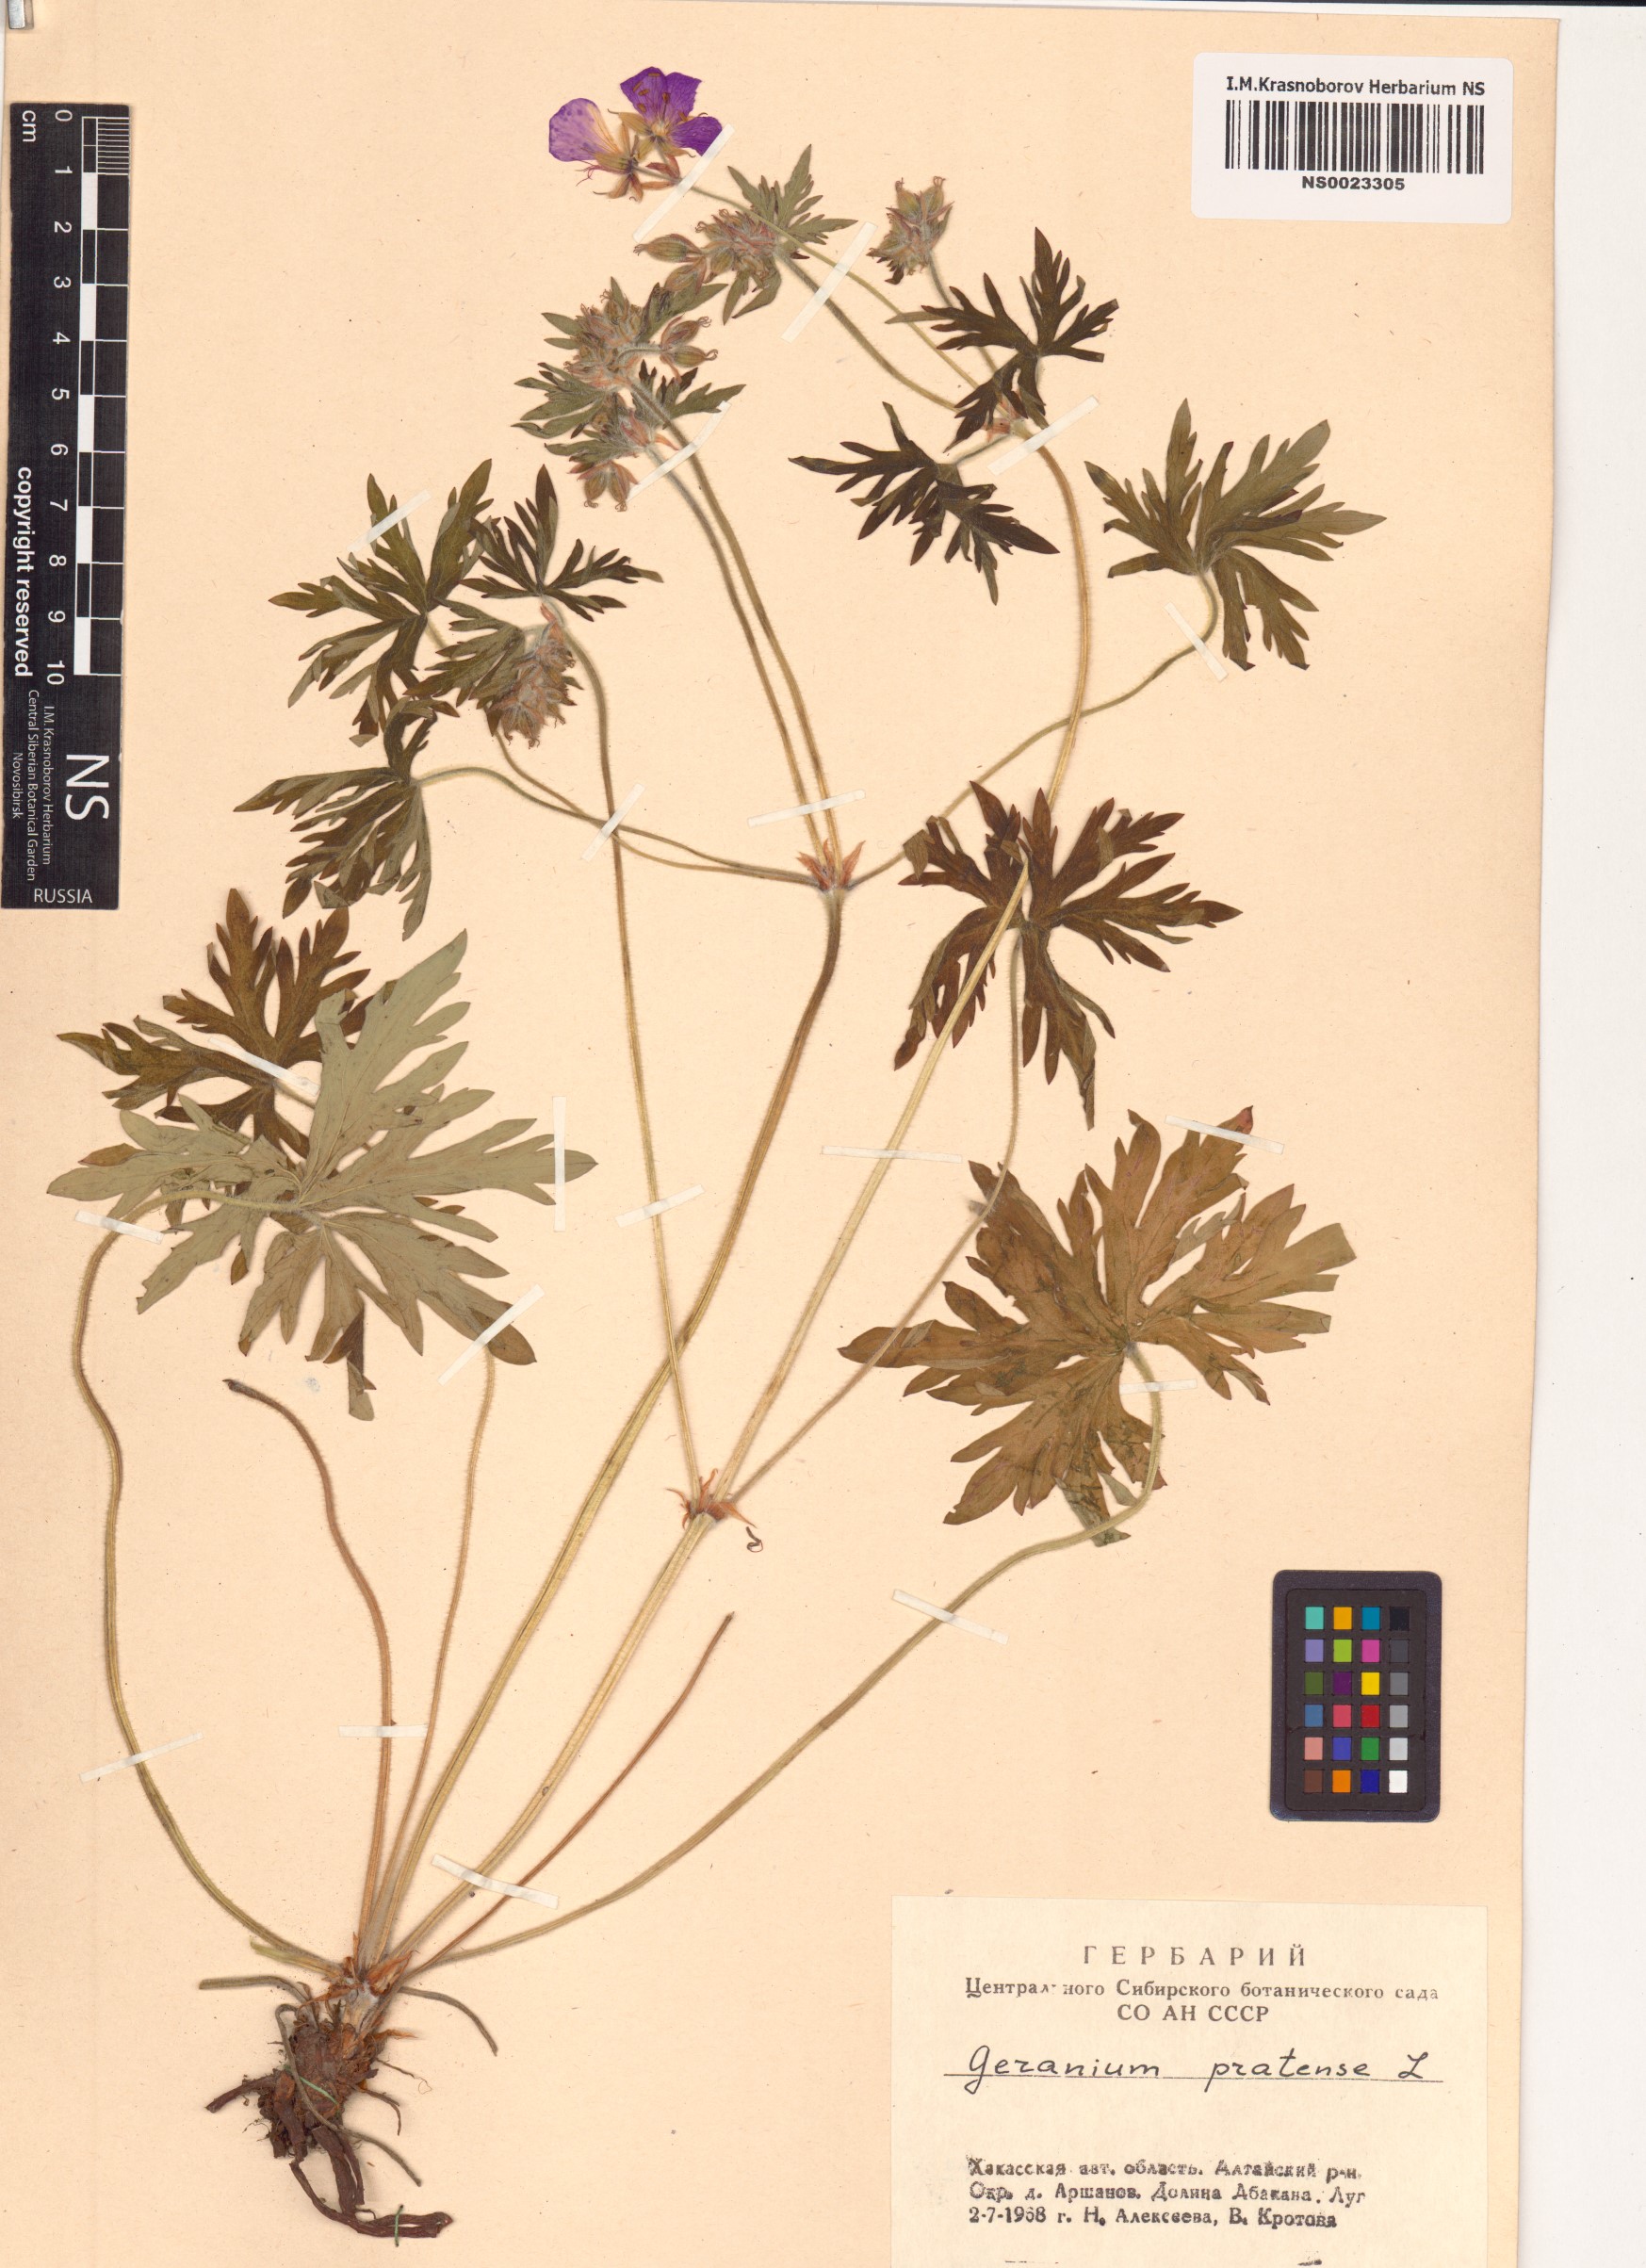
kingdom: Plantae
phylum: Tracheophyta
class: Magnoliopsida
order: Geraniales
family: Geraniaceae
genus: Geranium
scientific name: Geranium pratense
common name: Meadow crane's-bill
